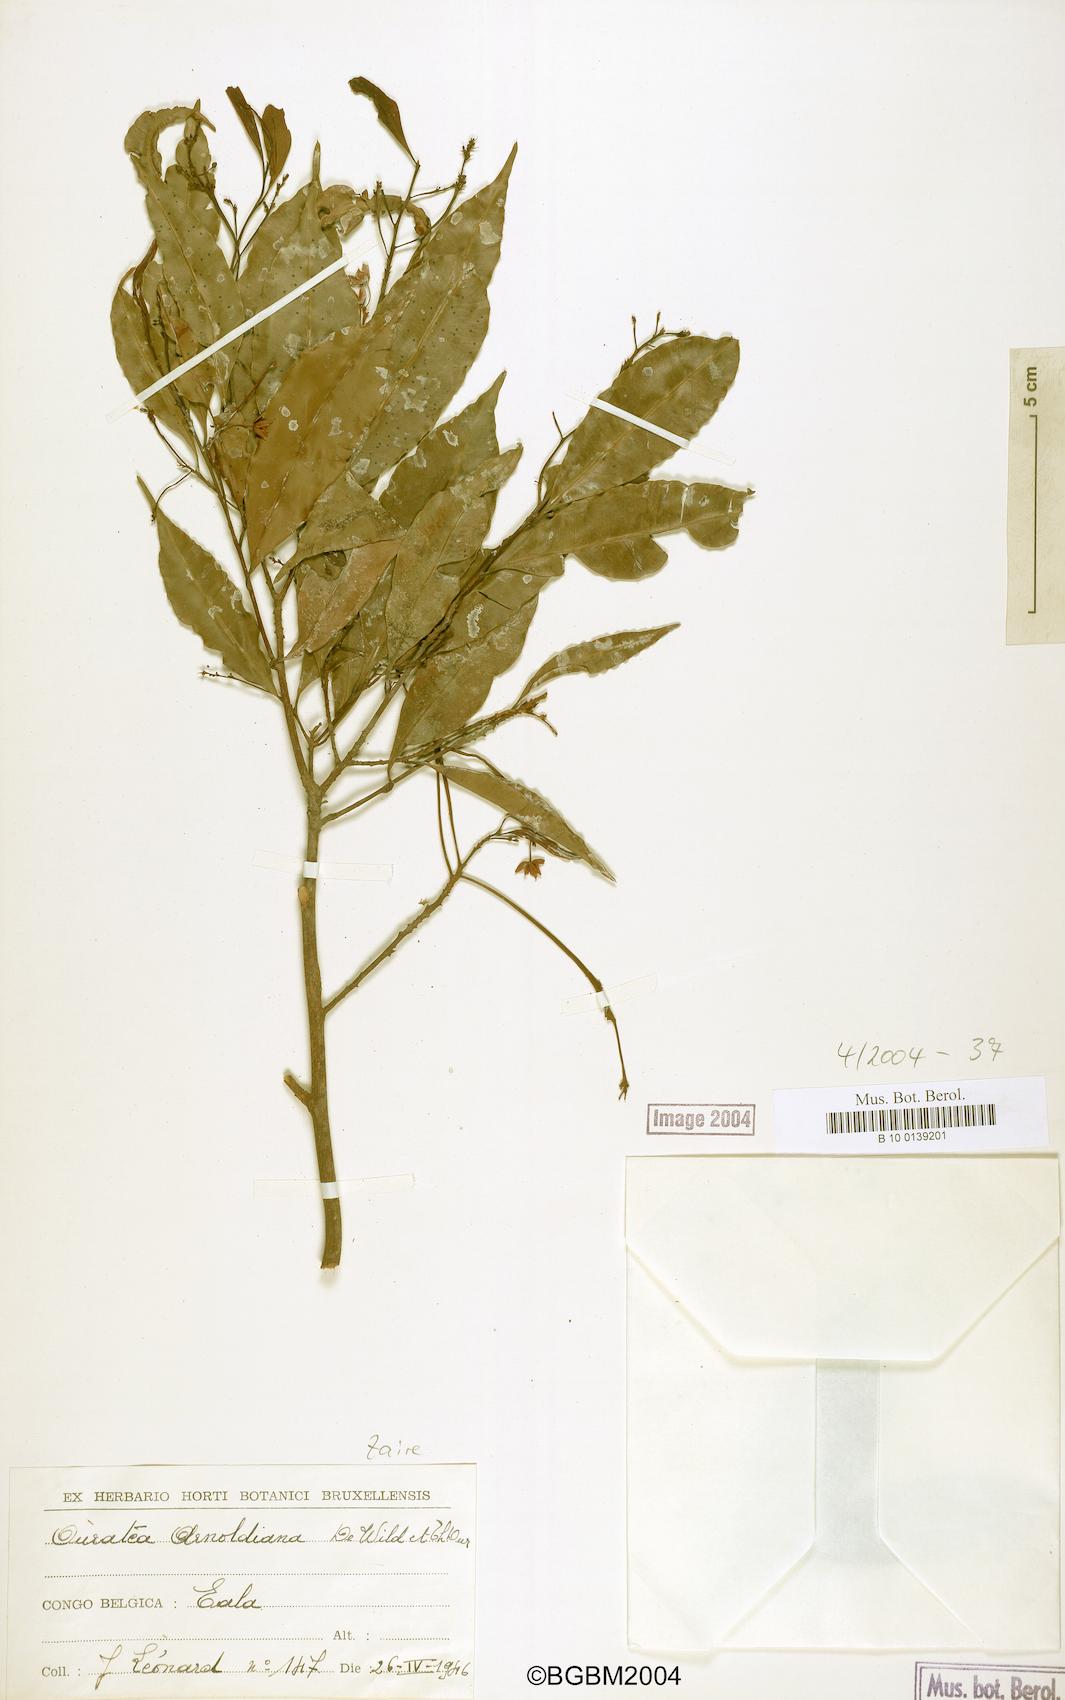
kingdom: Plantae
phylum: Tracheophyta
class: Magnoliopsida
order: Malpighiales
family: Ochnaceae
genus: Rhabdophyllum
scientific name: Rhabdophyllum arnoldianum
